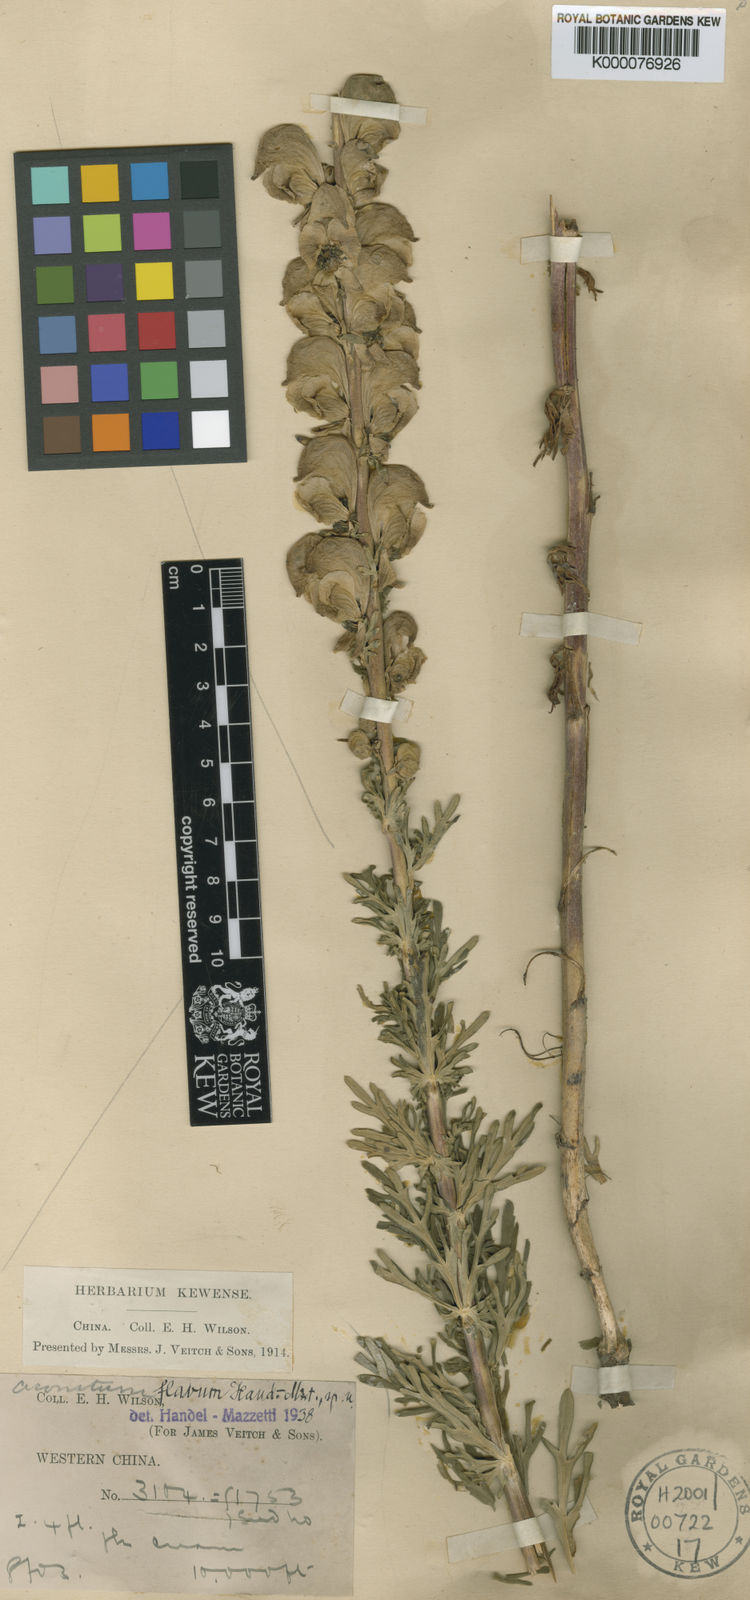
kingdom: Plantae
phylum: Tracheophyta
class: Magnoliopsida
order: Ranunculales
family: Ranunculaceae
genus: Aconitum
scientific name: Aconitum flavum
